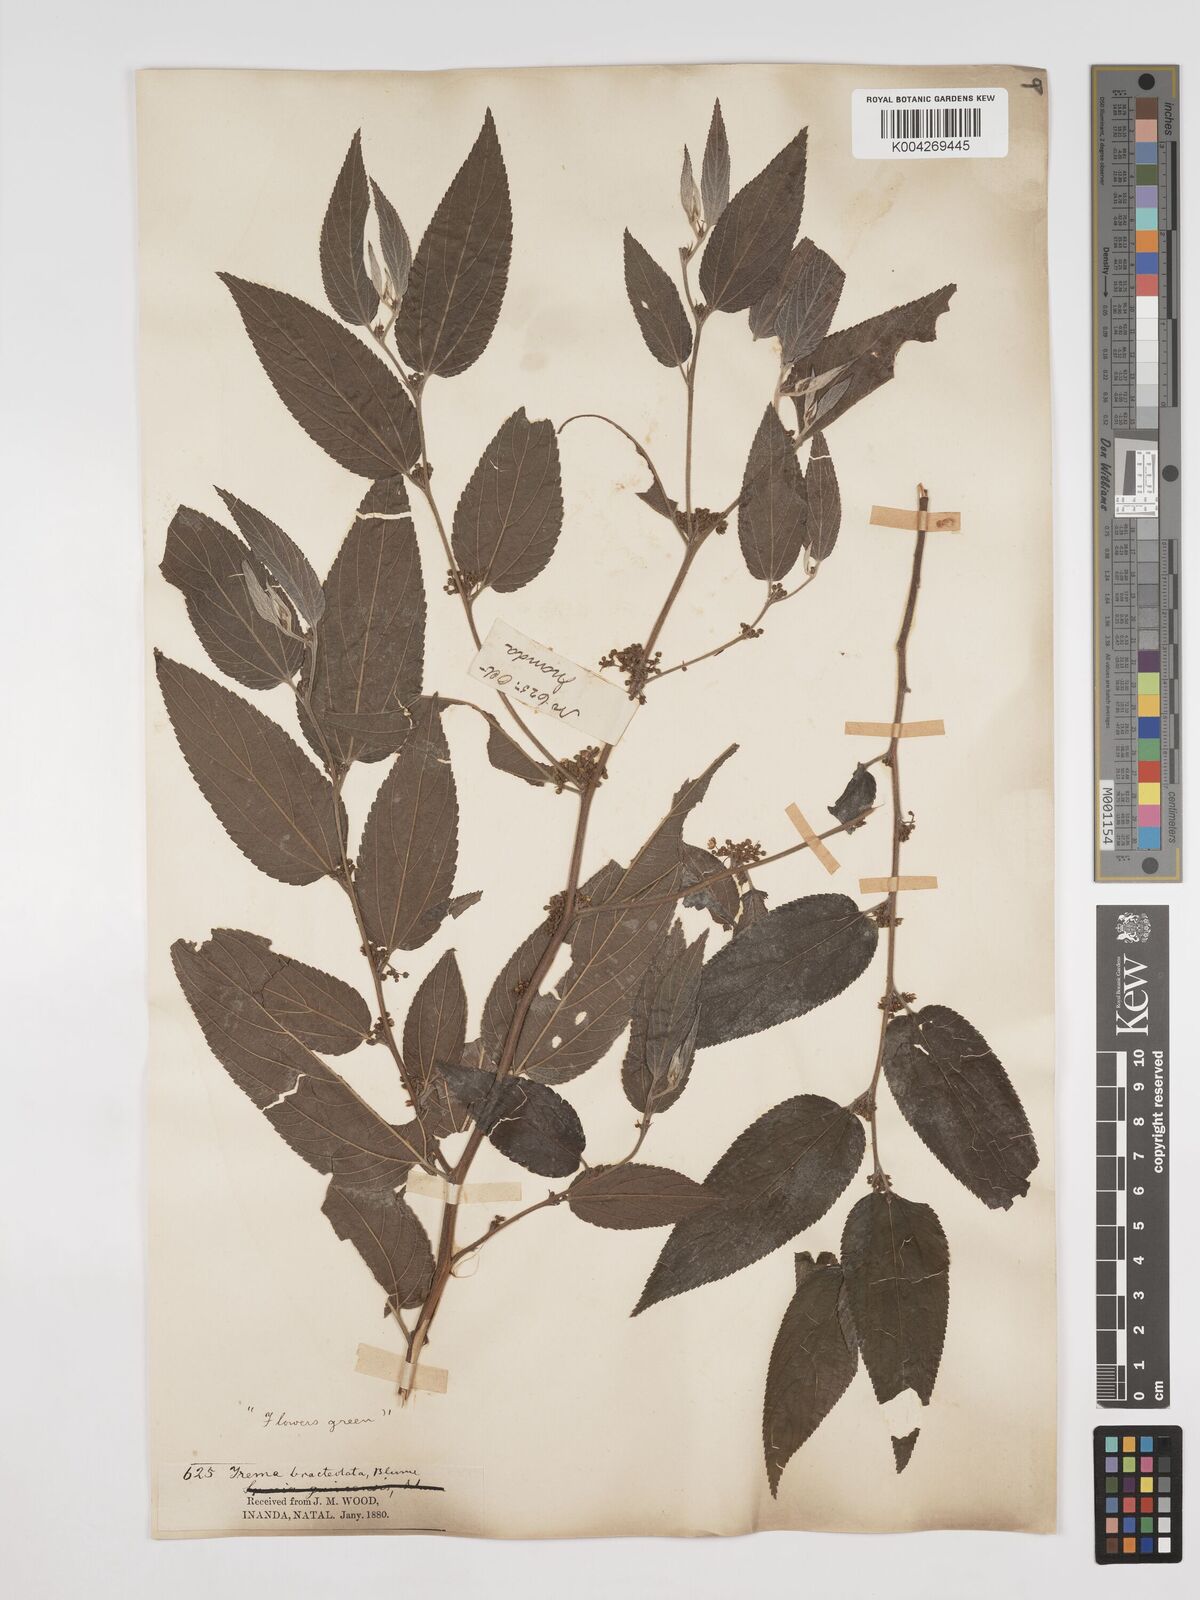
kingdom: Plantae
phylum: Tracheophyta
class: Magnoliopsida
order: Rosales
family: Cannabaceae
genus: Trema
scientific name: Trema orientale
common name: Indian charcoal tree
